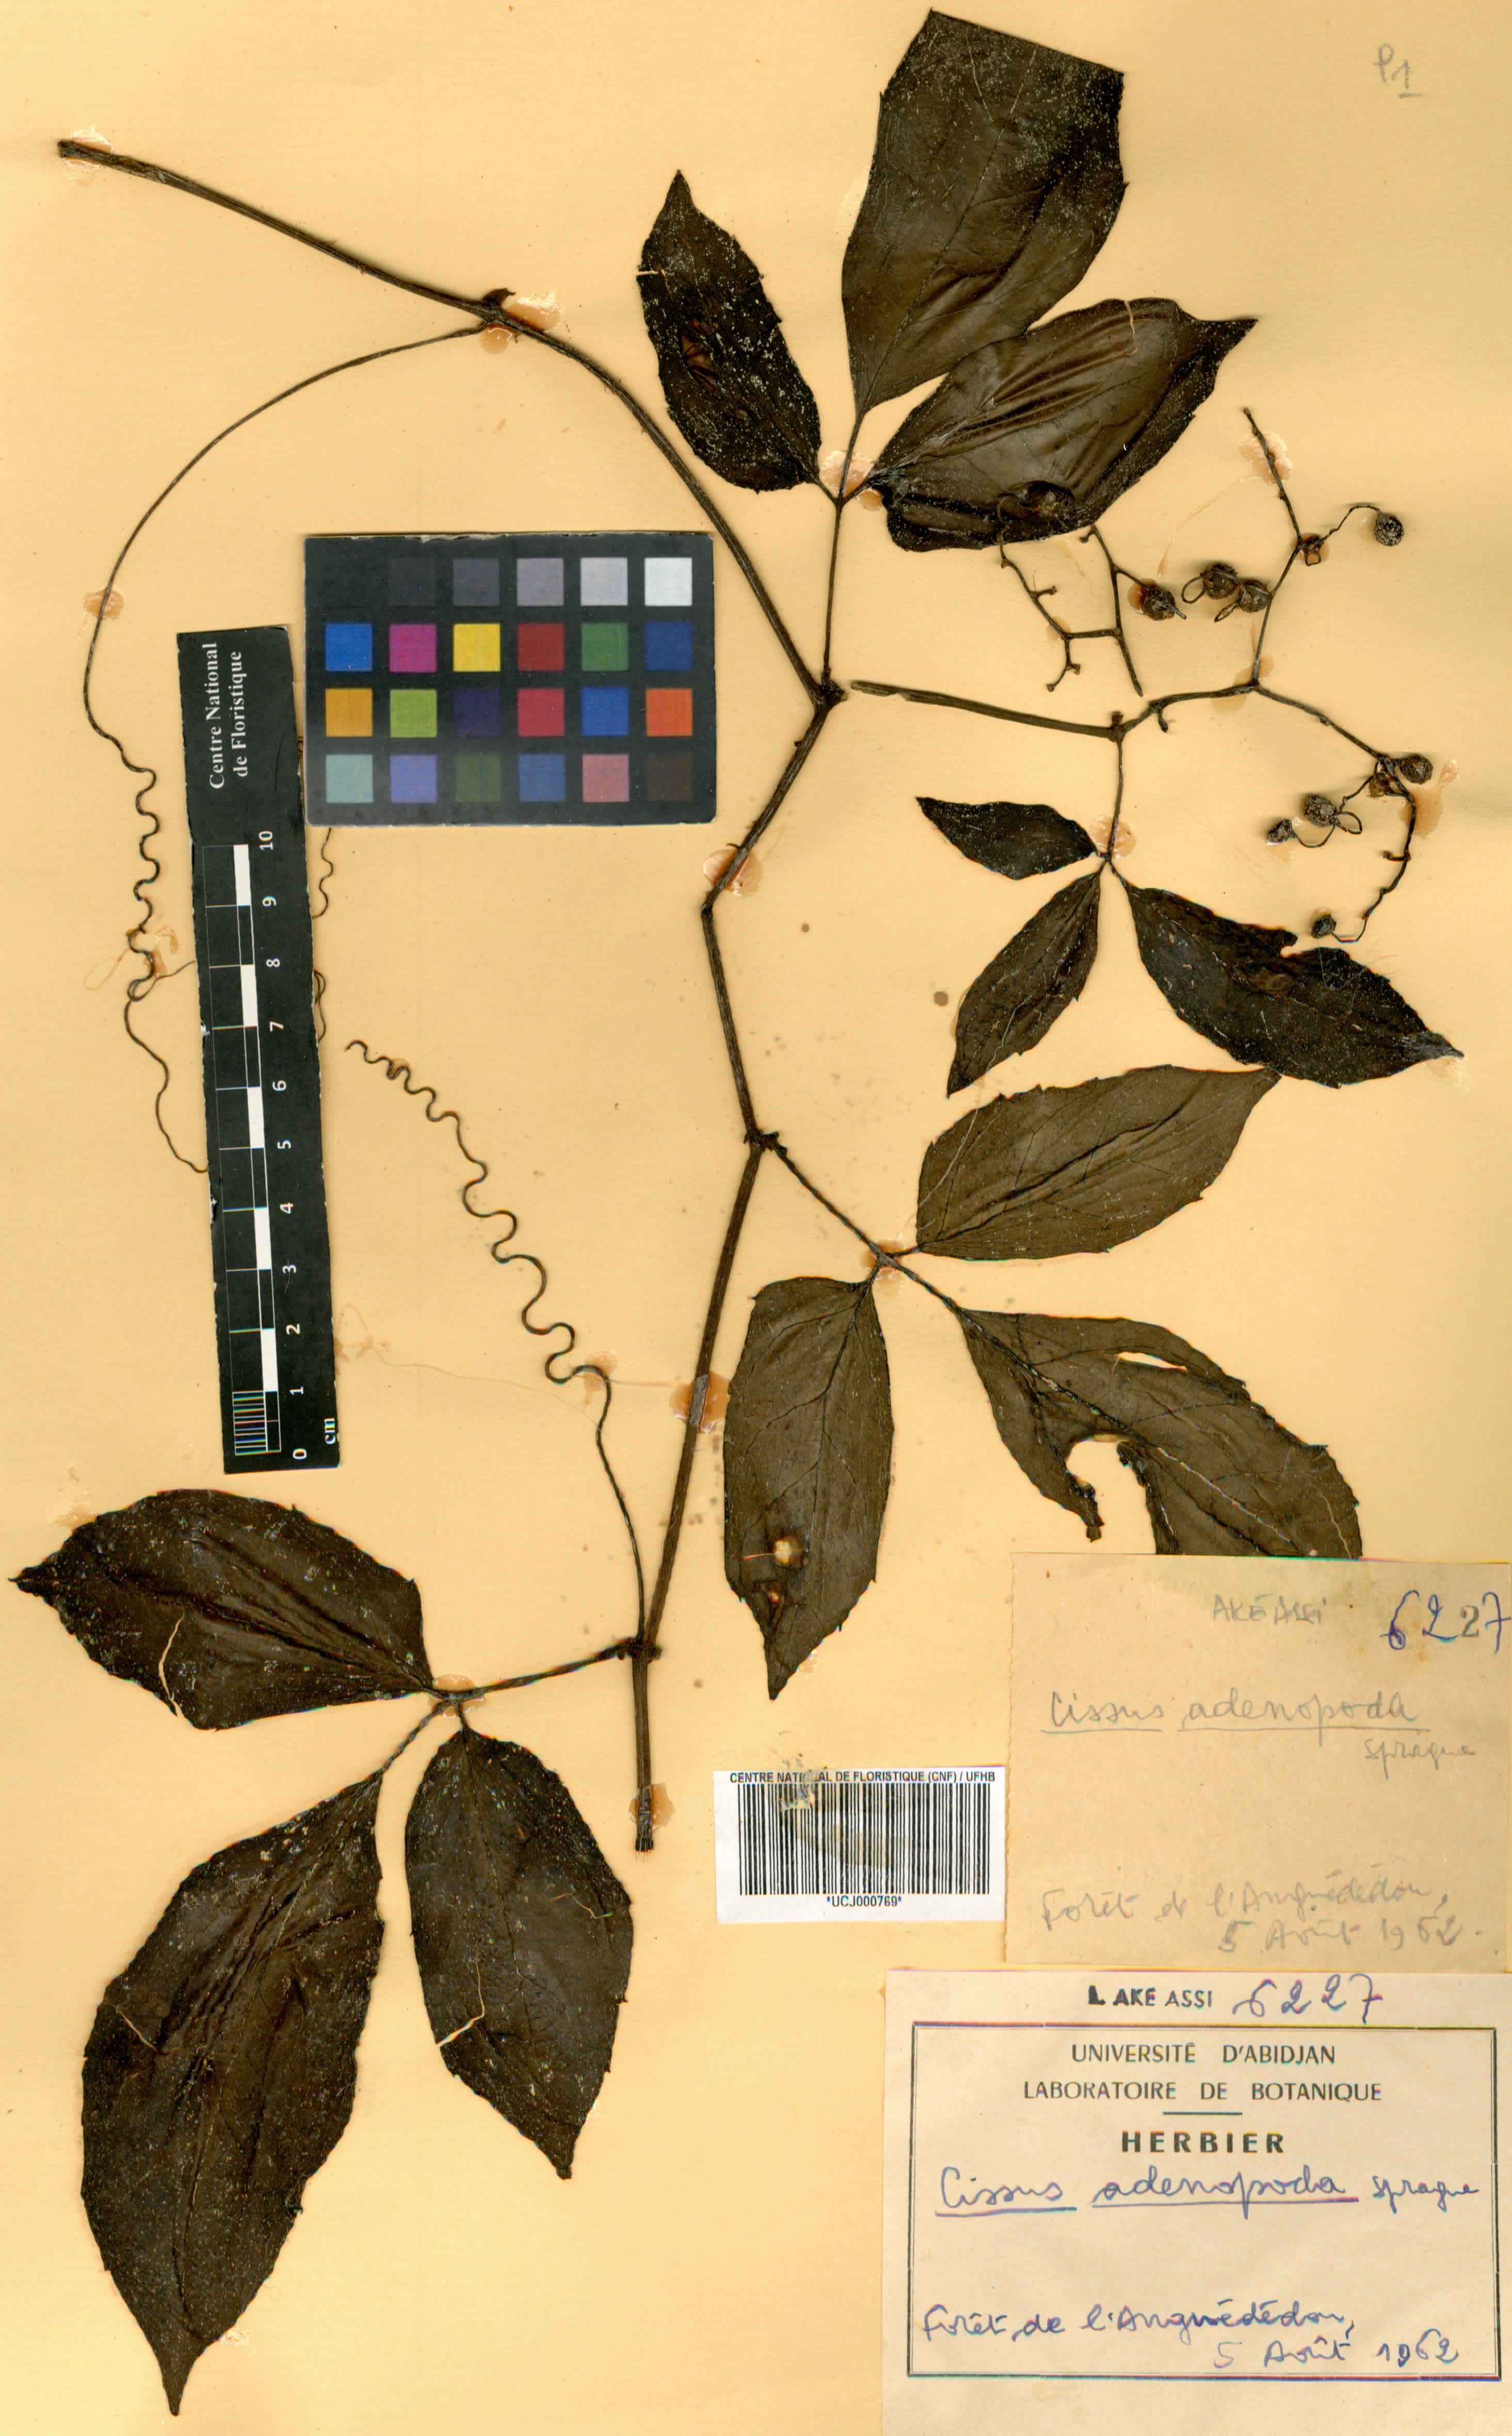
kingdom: Plantae
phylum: Tracheophyta
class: Magnoliopsida
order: Vitales
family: Vitaceae
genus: Cyphostemma
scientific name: Cyphostemma adenopodum
